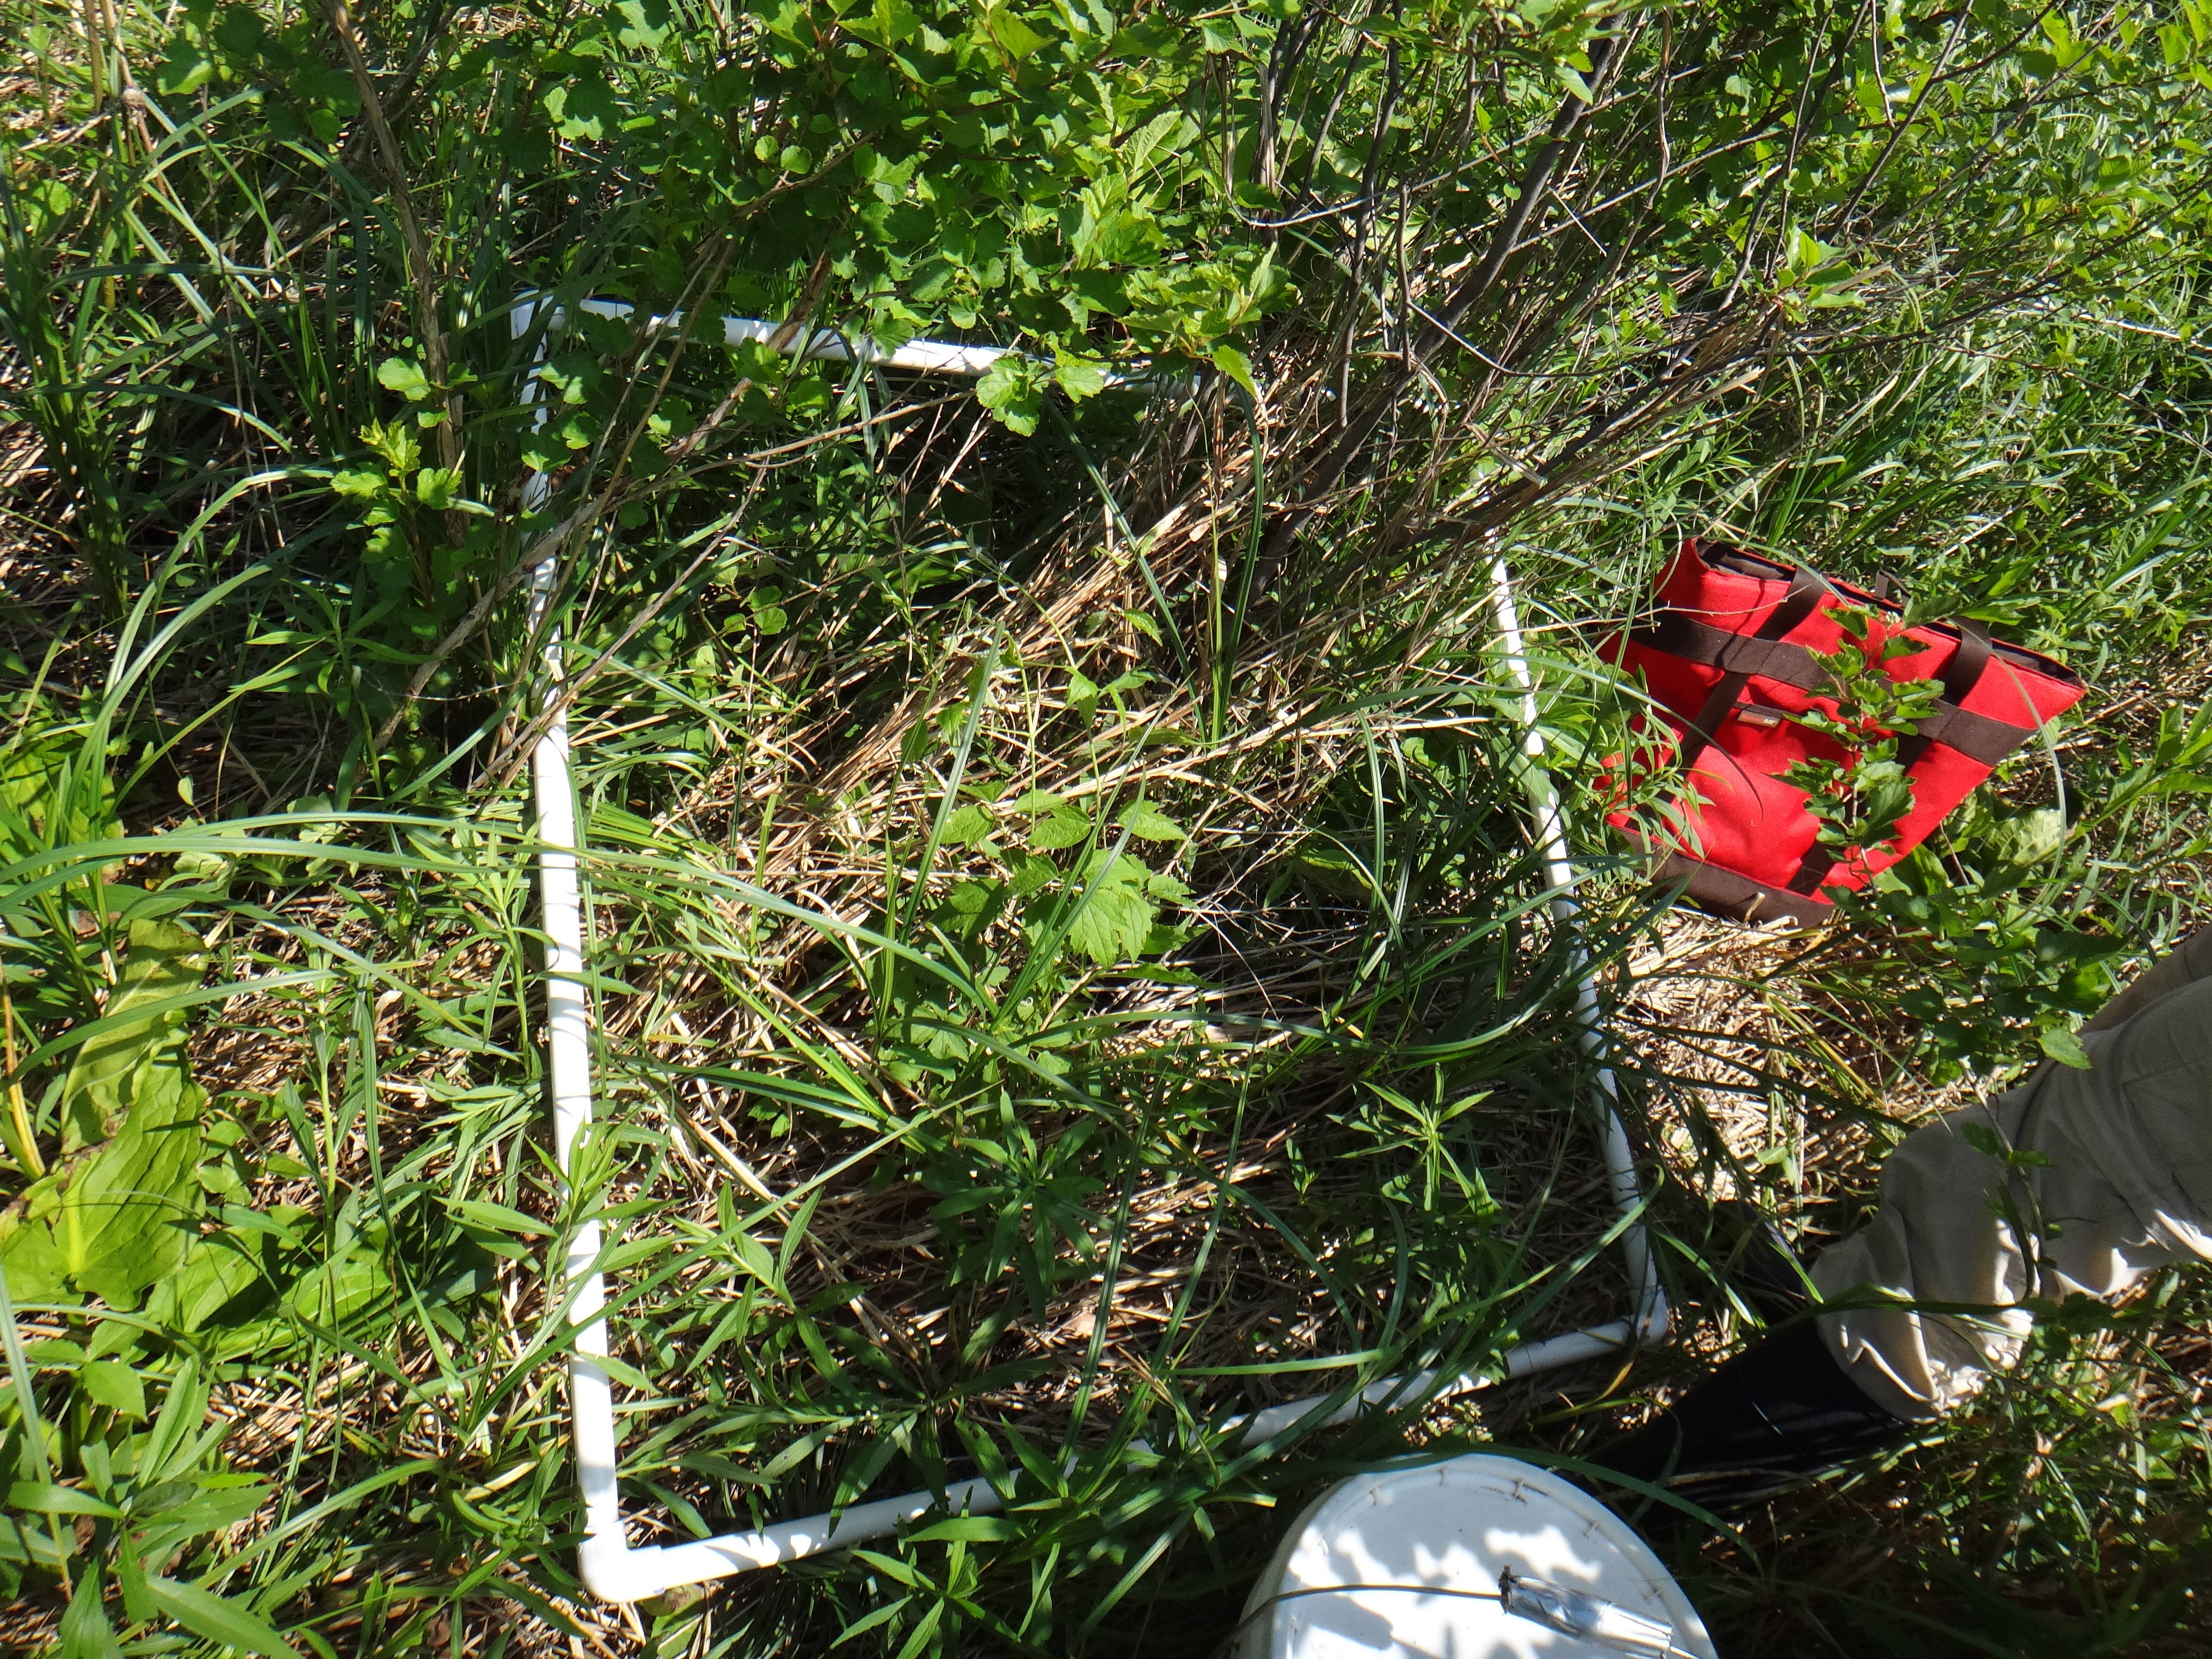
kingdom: Plantae
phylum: Tracheophyta
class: Magnoliopsida
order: Solanales
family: Convolvulaceae
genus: Calystegia
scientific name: Calystegia sepium
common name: Hedge bindweed
